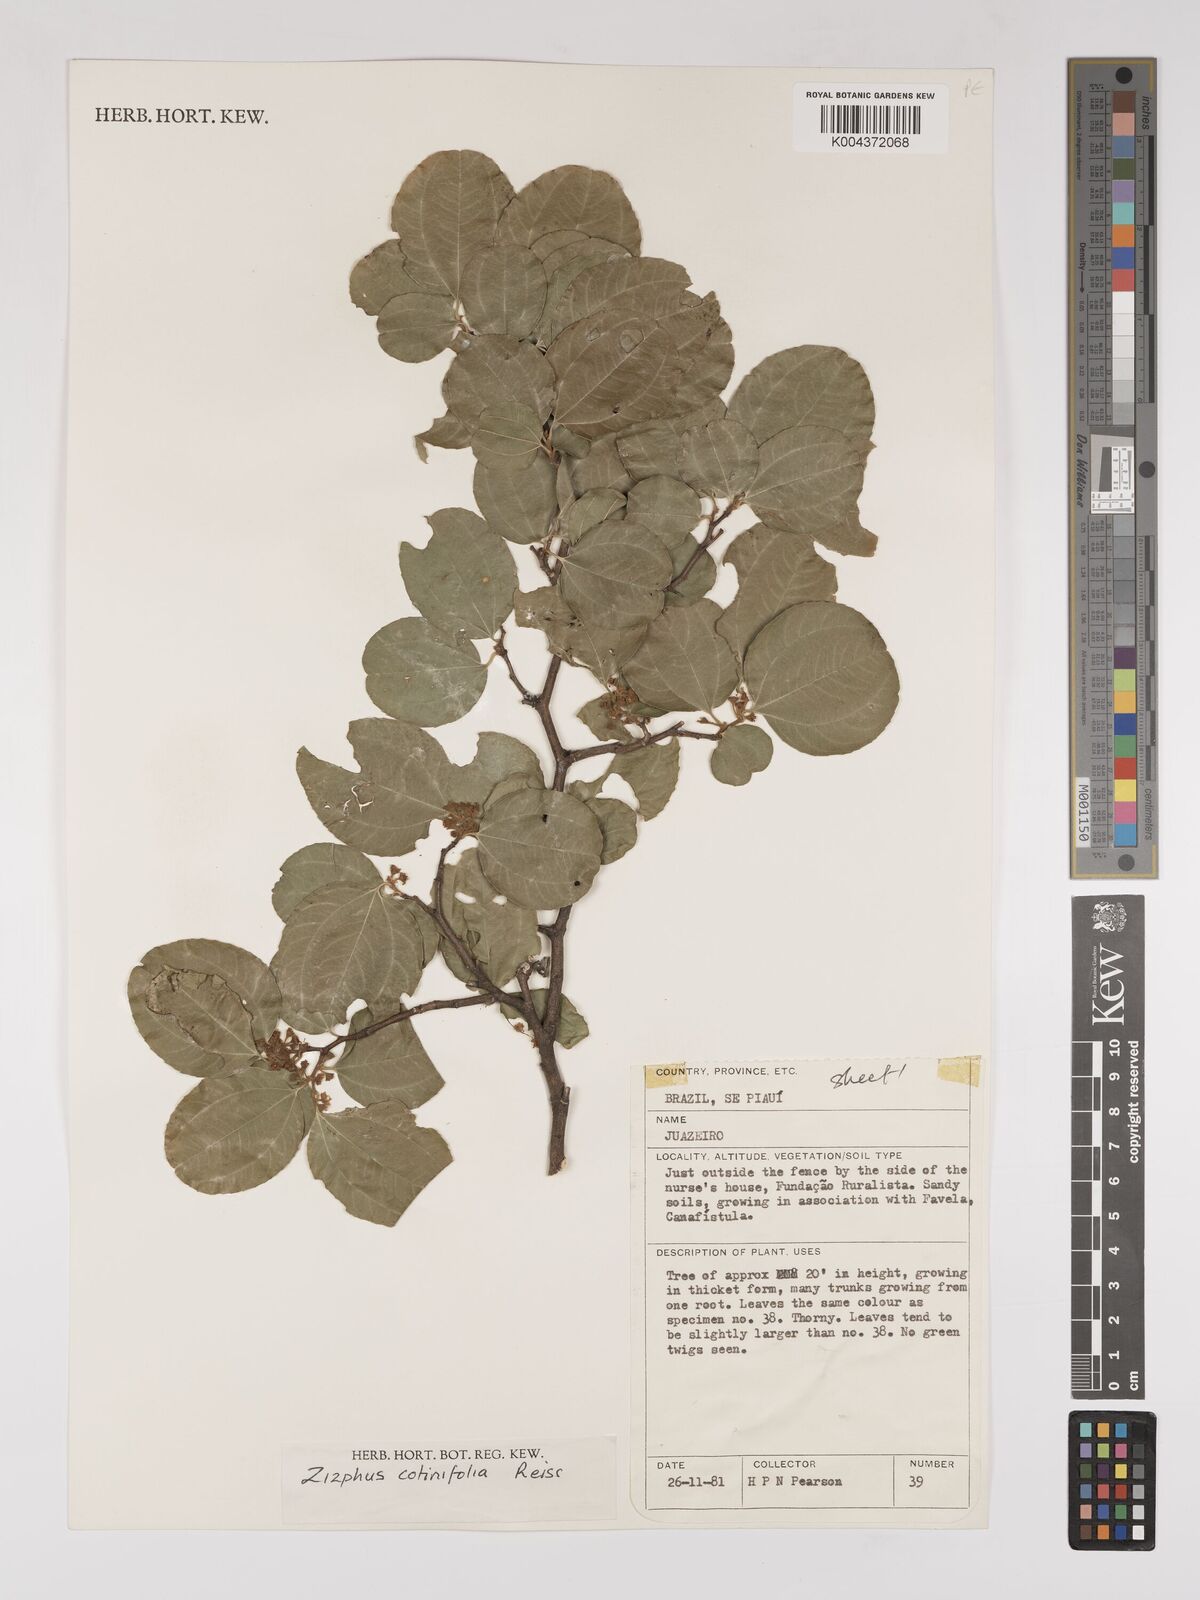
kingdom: Plantae
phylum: Tracheophyta
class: Magnoliopsida
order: Rosales
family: Rhamnaceae
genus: Sarcomphalus
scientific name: Sarcomphalus cotinifolius
